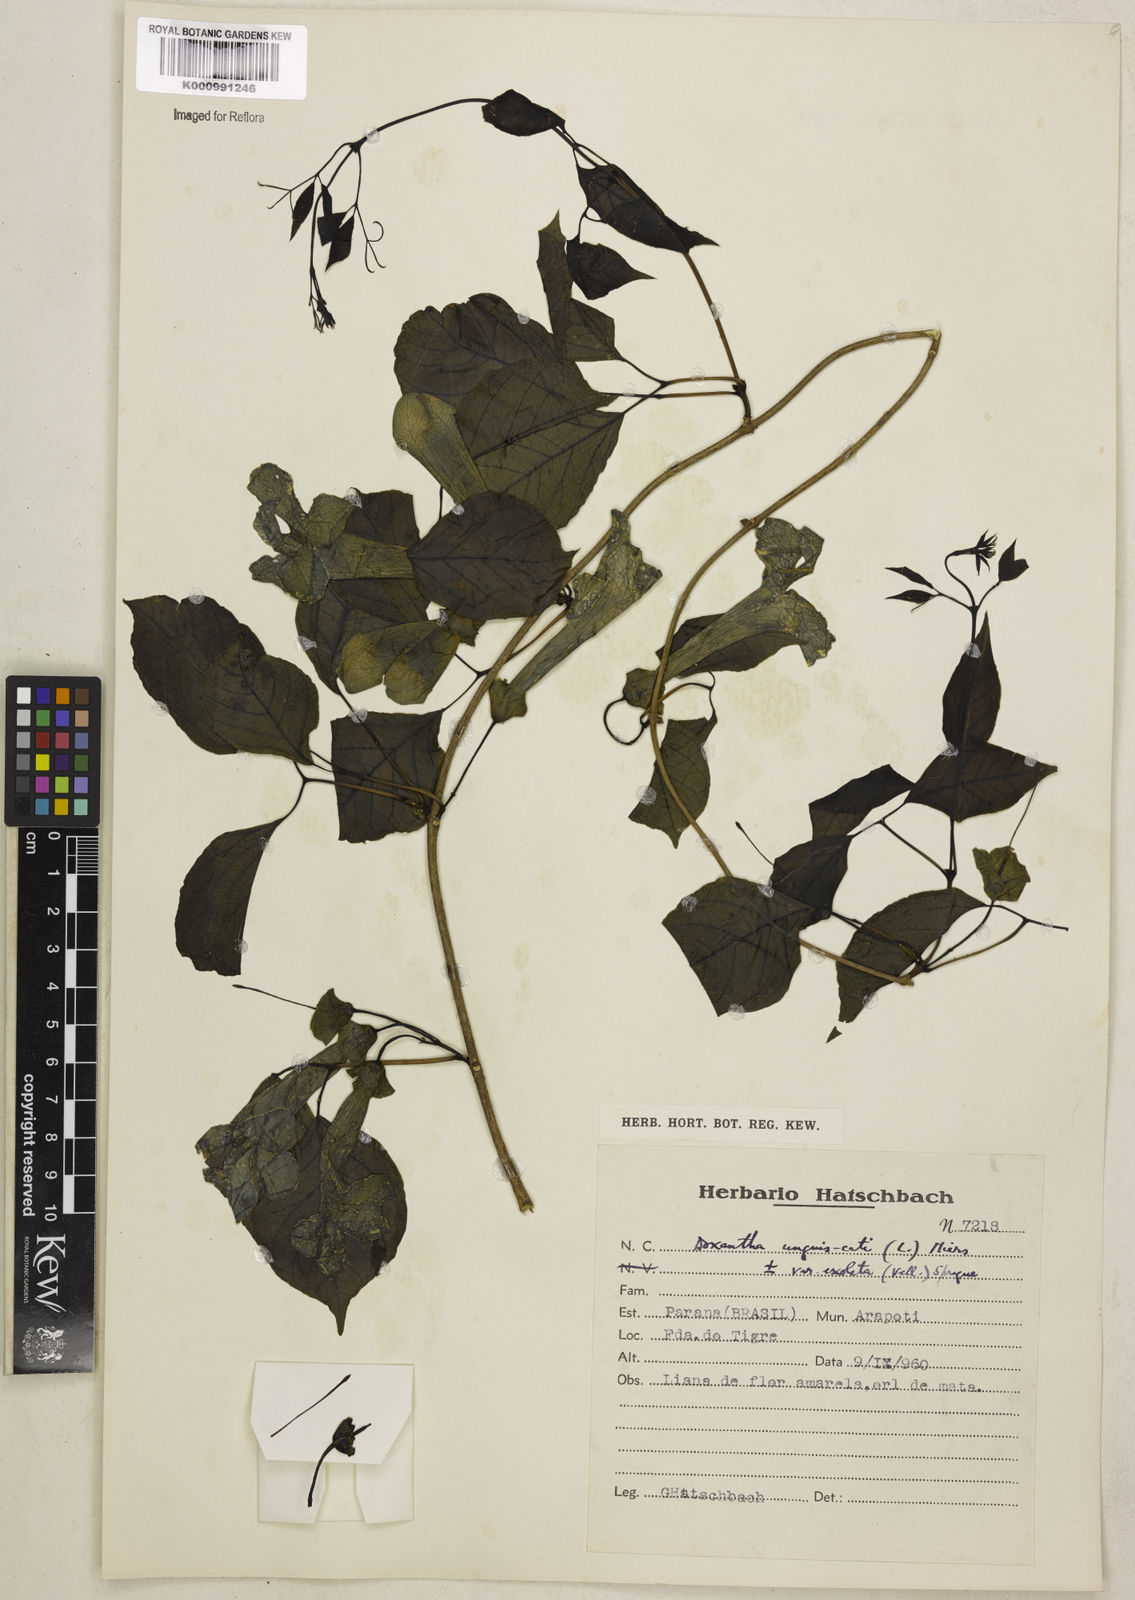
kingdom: Plantae
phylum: Tracheophyta
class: Magnoliopsida
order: Lamiales
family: Bignoniaceae
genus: Dolichandra
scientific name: Dolichandra unguis-cati
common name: Catclaw vine
